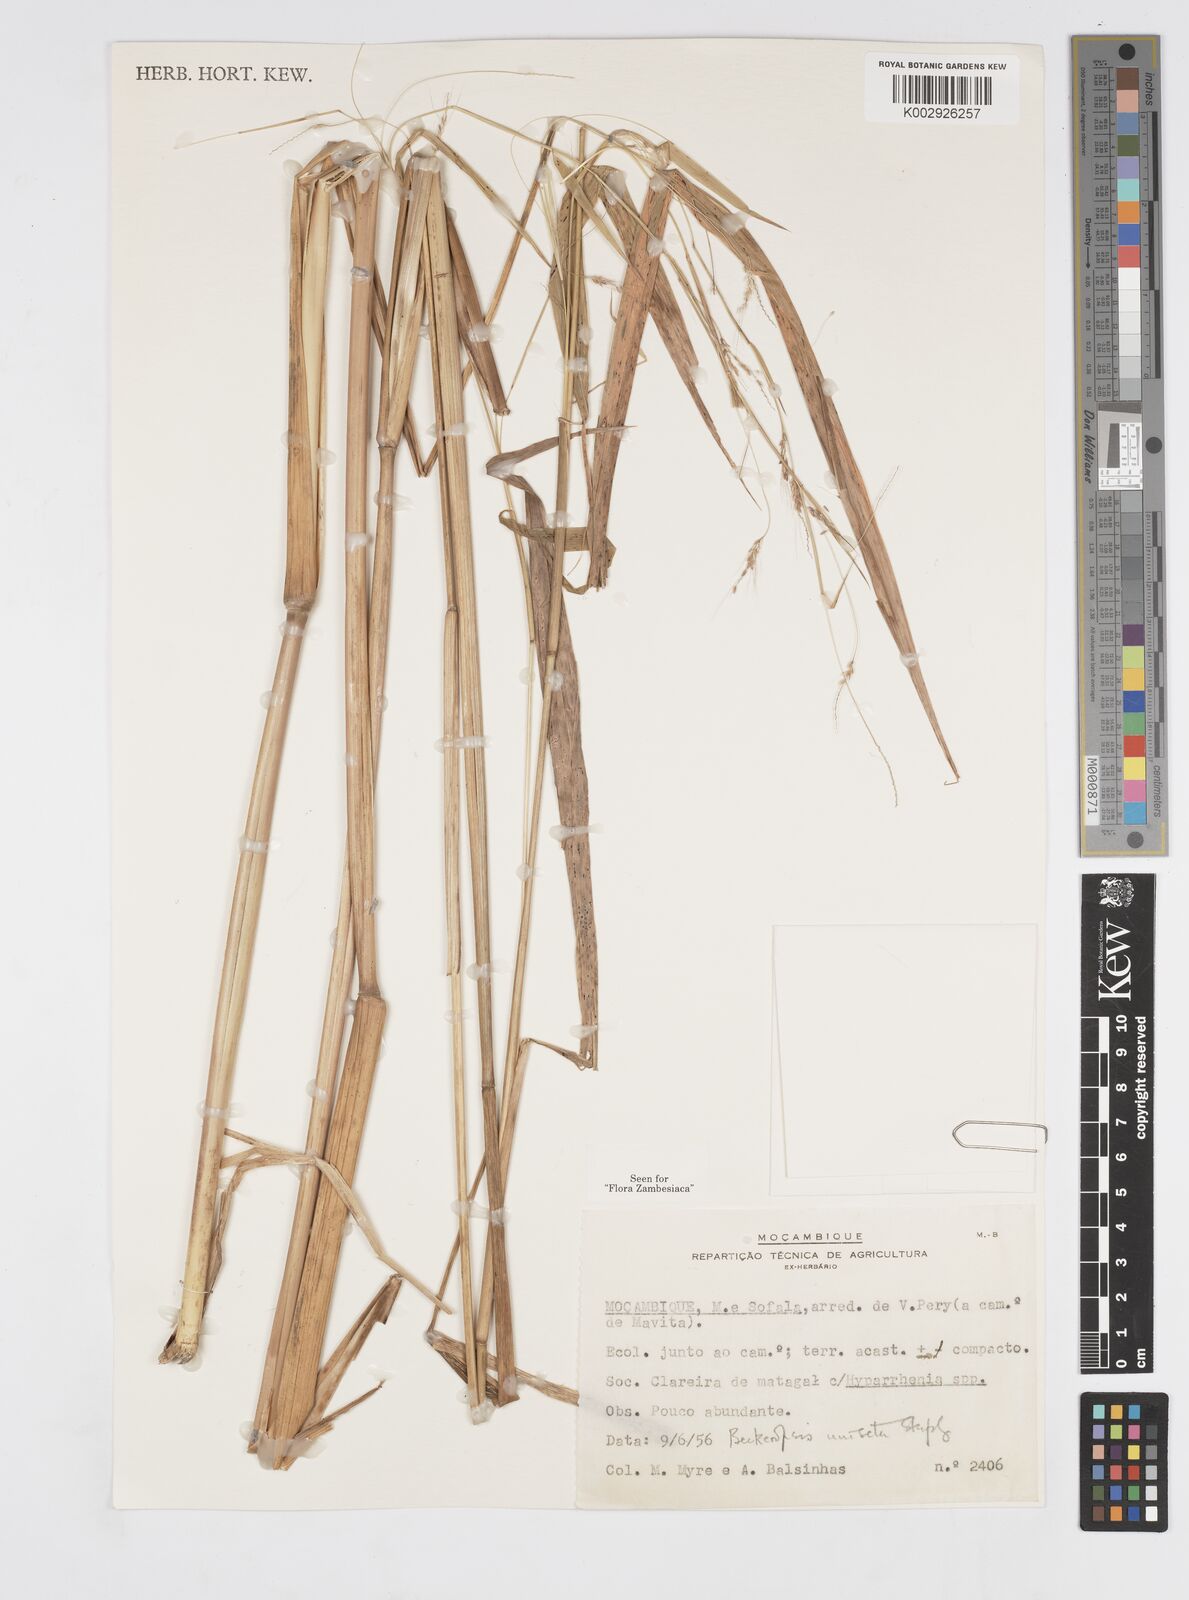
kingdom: Plantae
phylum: Tracheophyta
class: Liliopsida
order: Poales
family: Poaceae
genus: Cenchrus
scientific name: Cenchrus unisetus
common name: Natal grass
